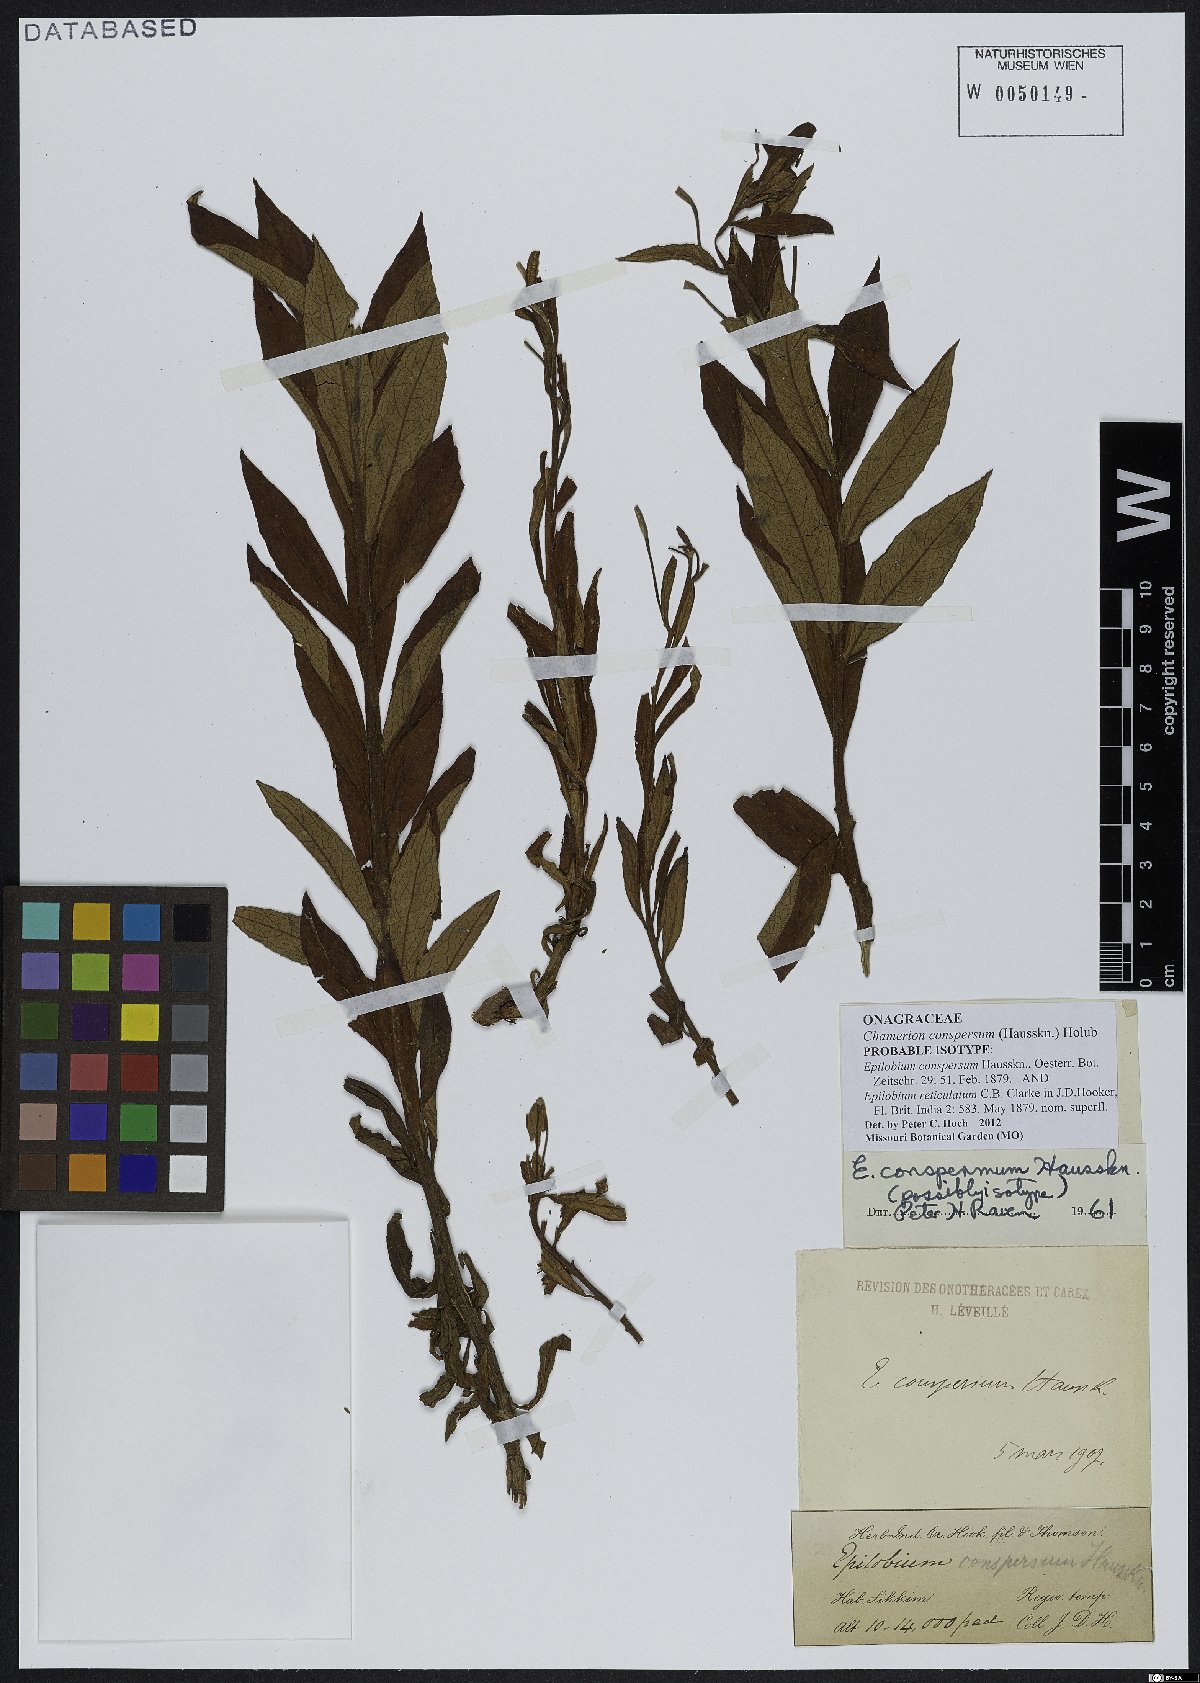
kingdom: Plantae
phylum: Tracheophyta
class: Magnoliopsida
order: Myrtales
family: Onagraceae
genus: Chamaenerion
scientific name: Chamaenerion conspersum
